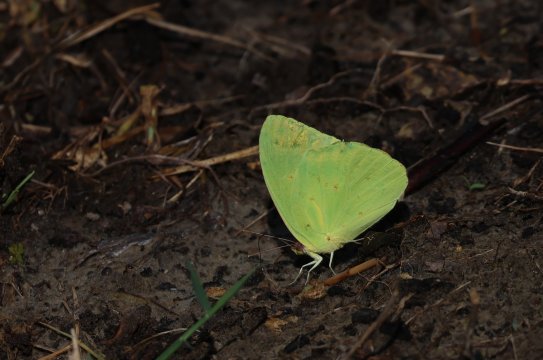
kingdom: Animalia
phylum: Arthropoda
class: Insecta
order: Lepidoptera
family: Pieridae
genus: Phoebis
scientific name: Phoebis sennae
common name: Cloudless Sulphur
